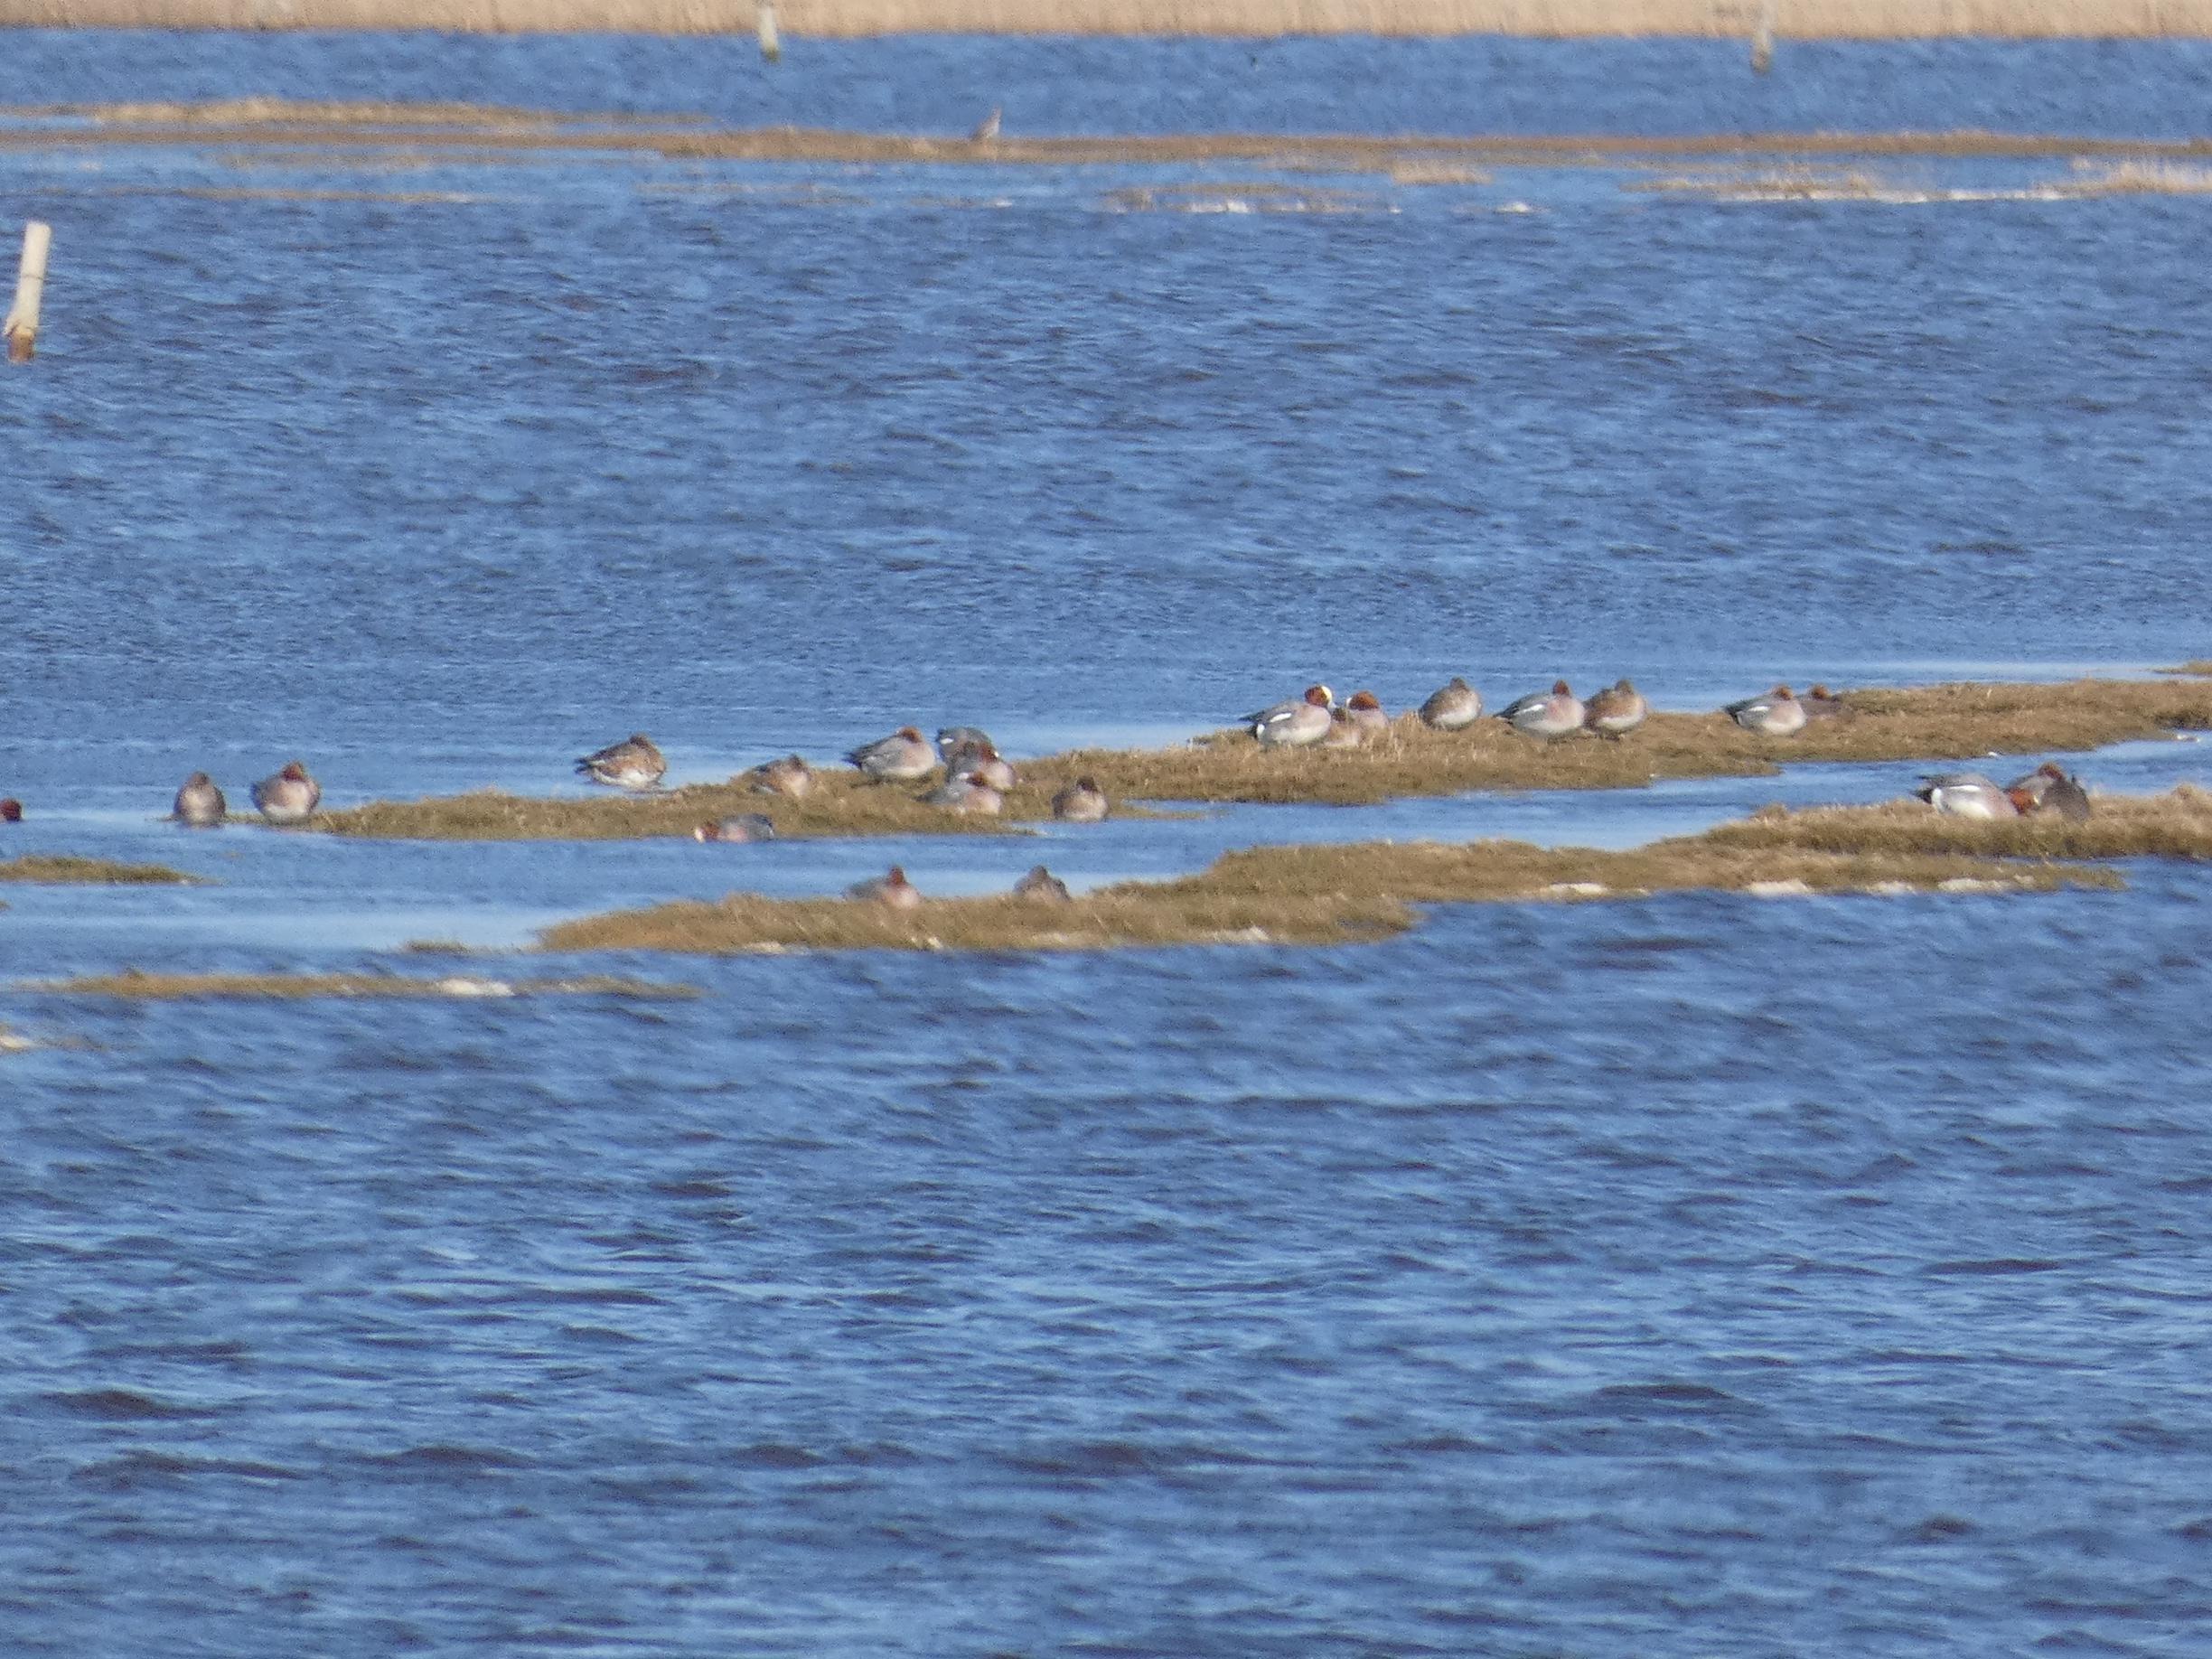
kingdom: Animalia
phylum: Chordata
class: Aves
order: Anseriformes
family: Anatidae
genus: Mareca
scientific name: Mareca penelope
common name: Pibeand
